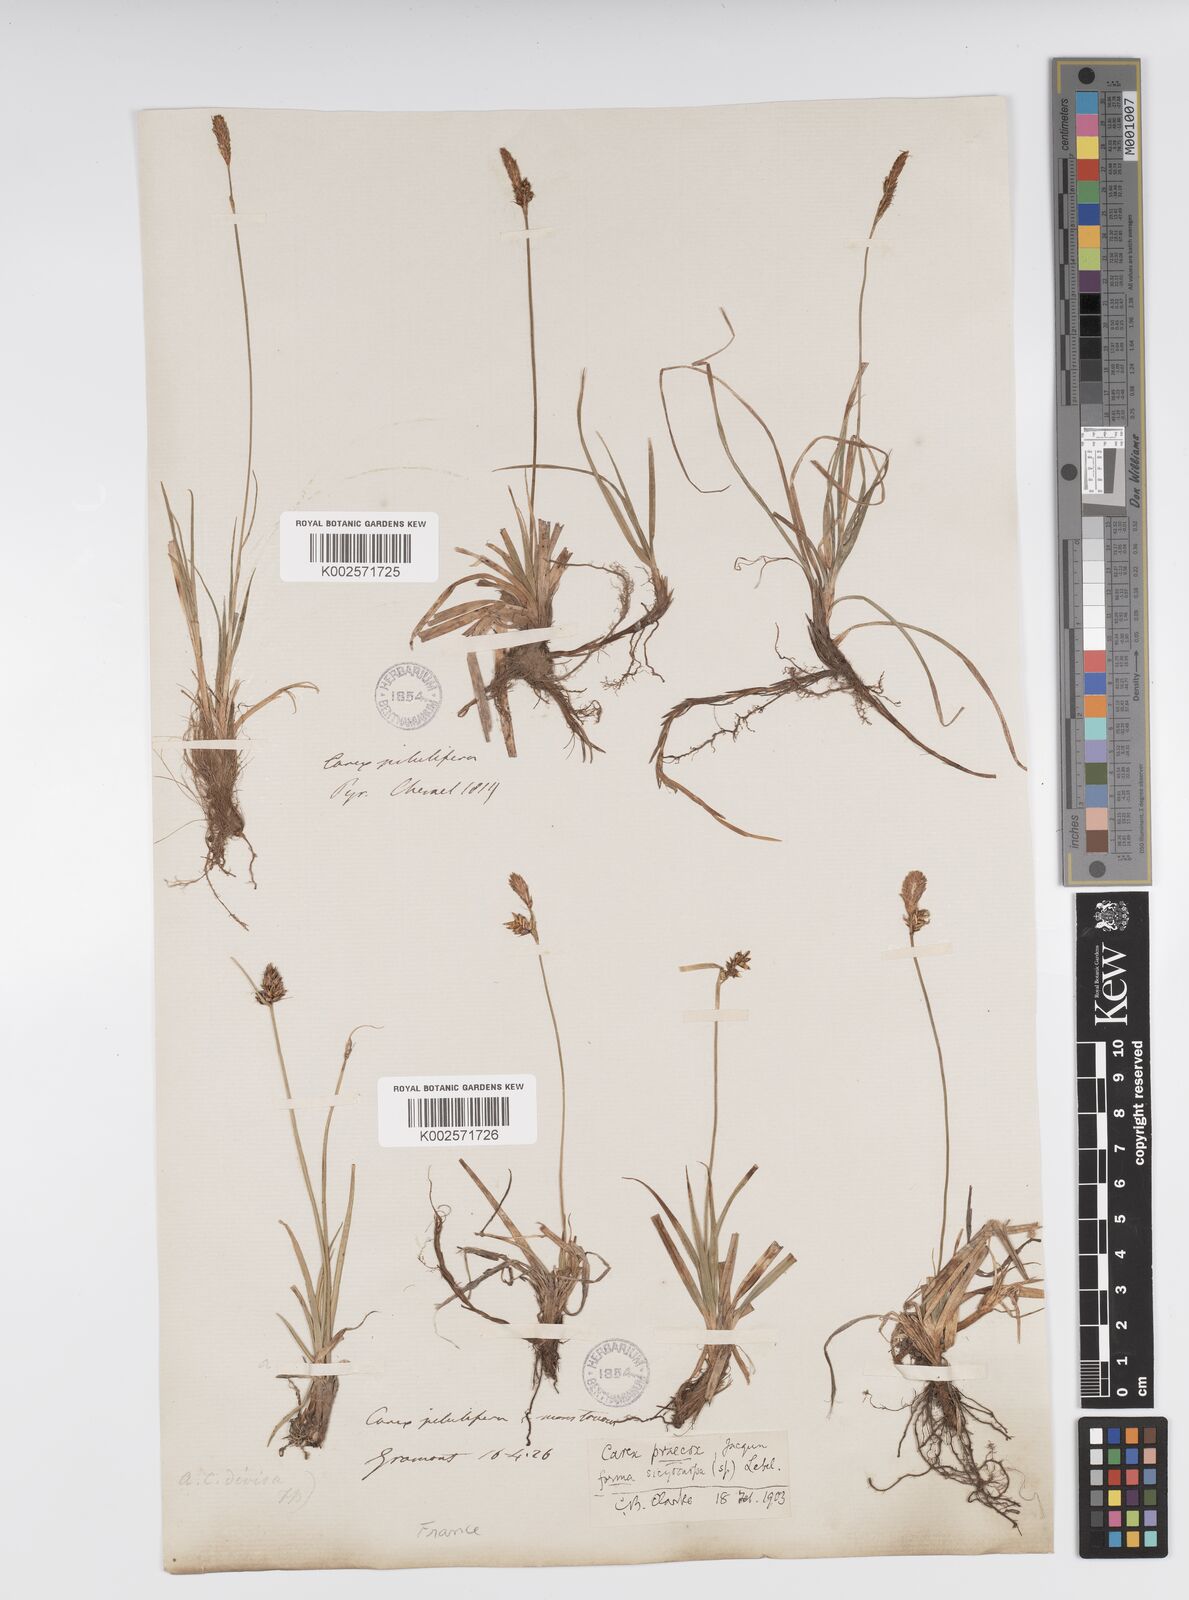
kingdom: Plantae
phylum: Tracheophyta
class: Liliopsida
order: Poales
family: Cyperaceae
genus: Carex
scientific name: Carex caryophyllea
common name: Spring sedge
